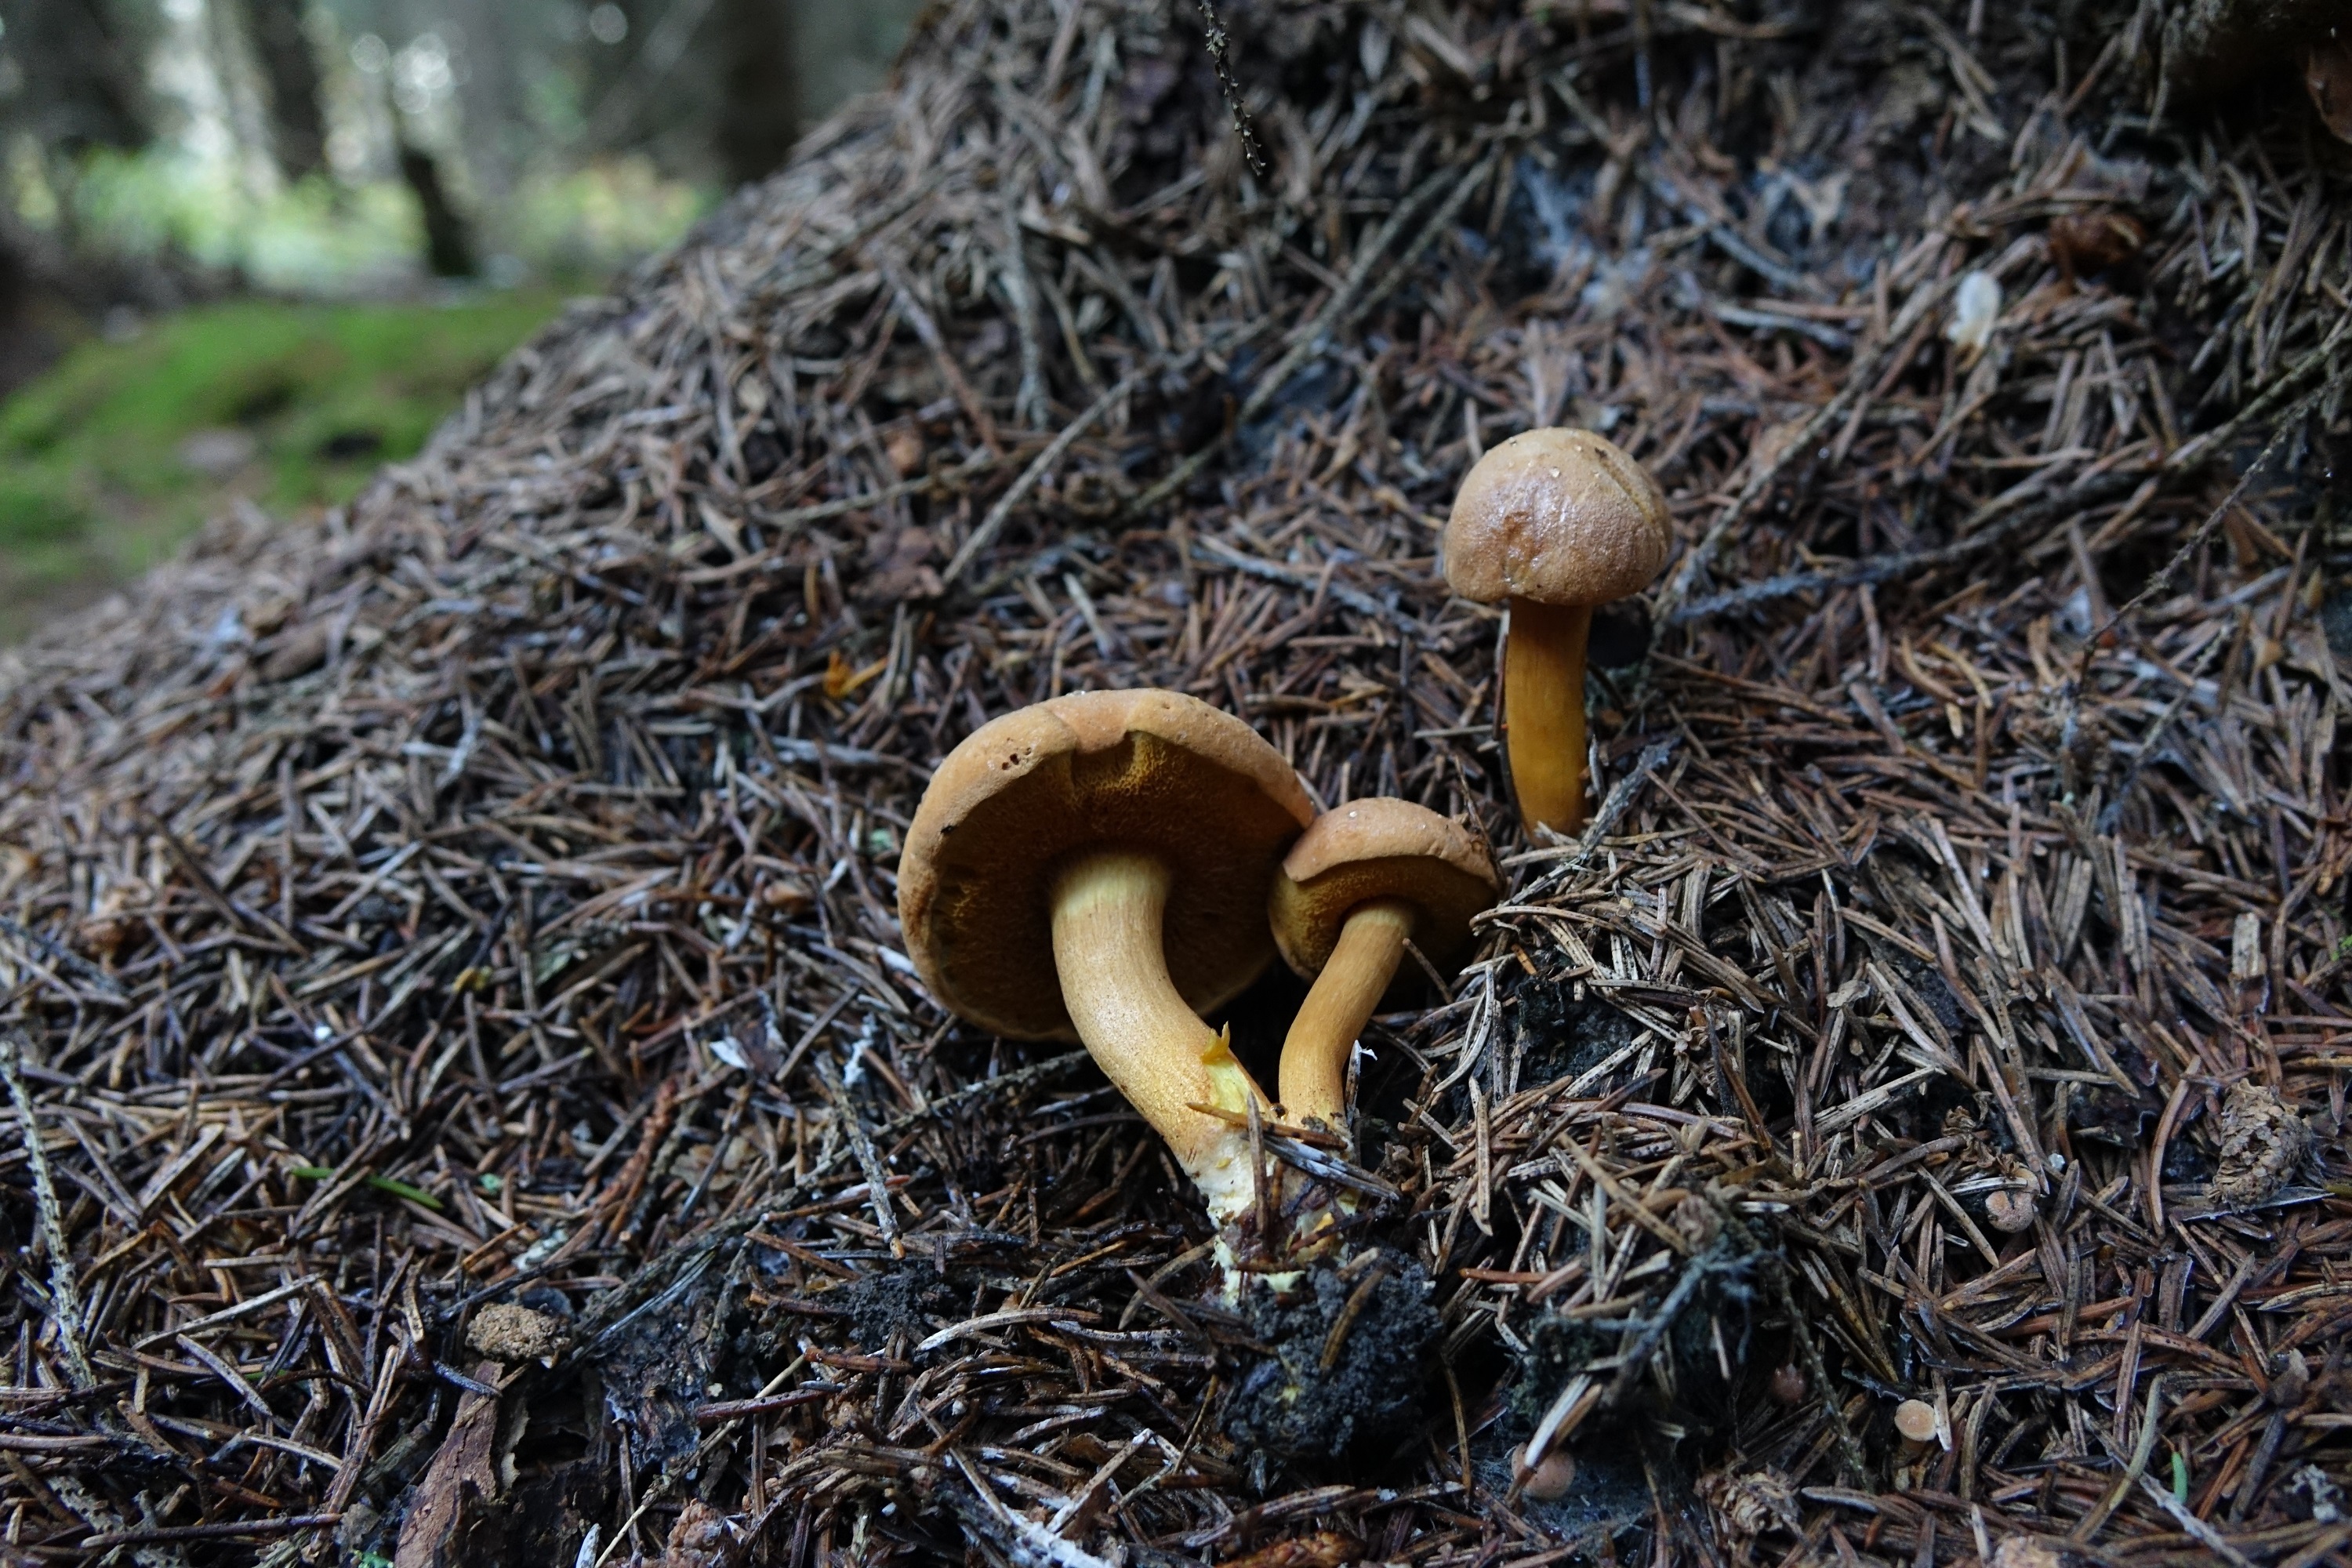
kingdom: Fungi
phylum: Basidiomycota
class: Agaricomycetes
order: Boletales
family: Boletaceae
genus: Chalciporus
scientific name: Chalciporus piperatus
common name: Peppery bolete
